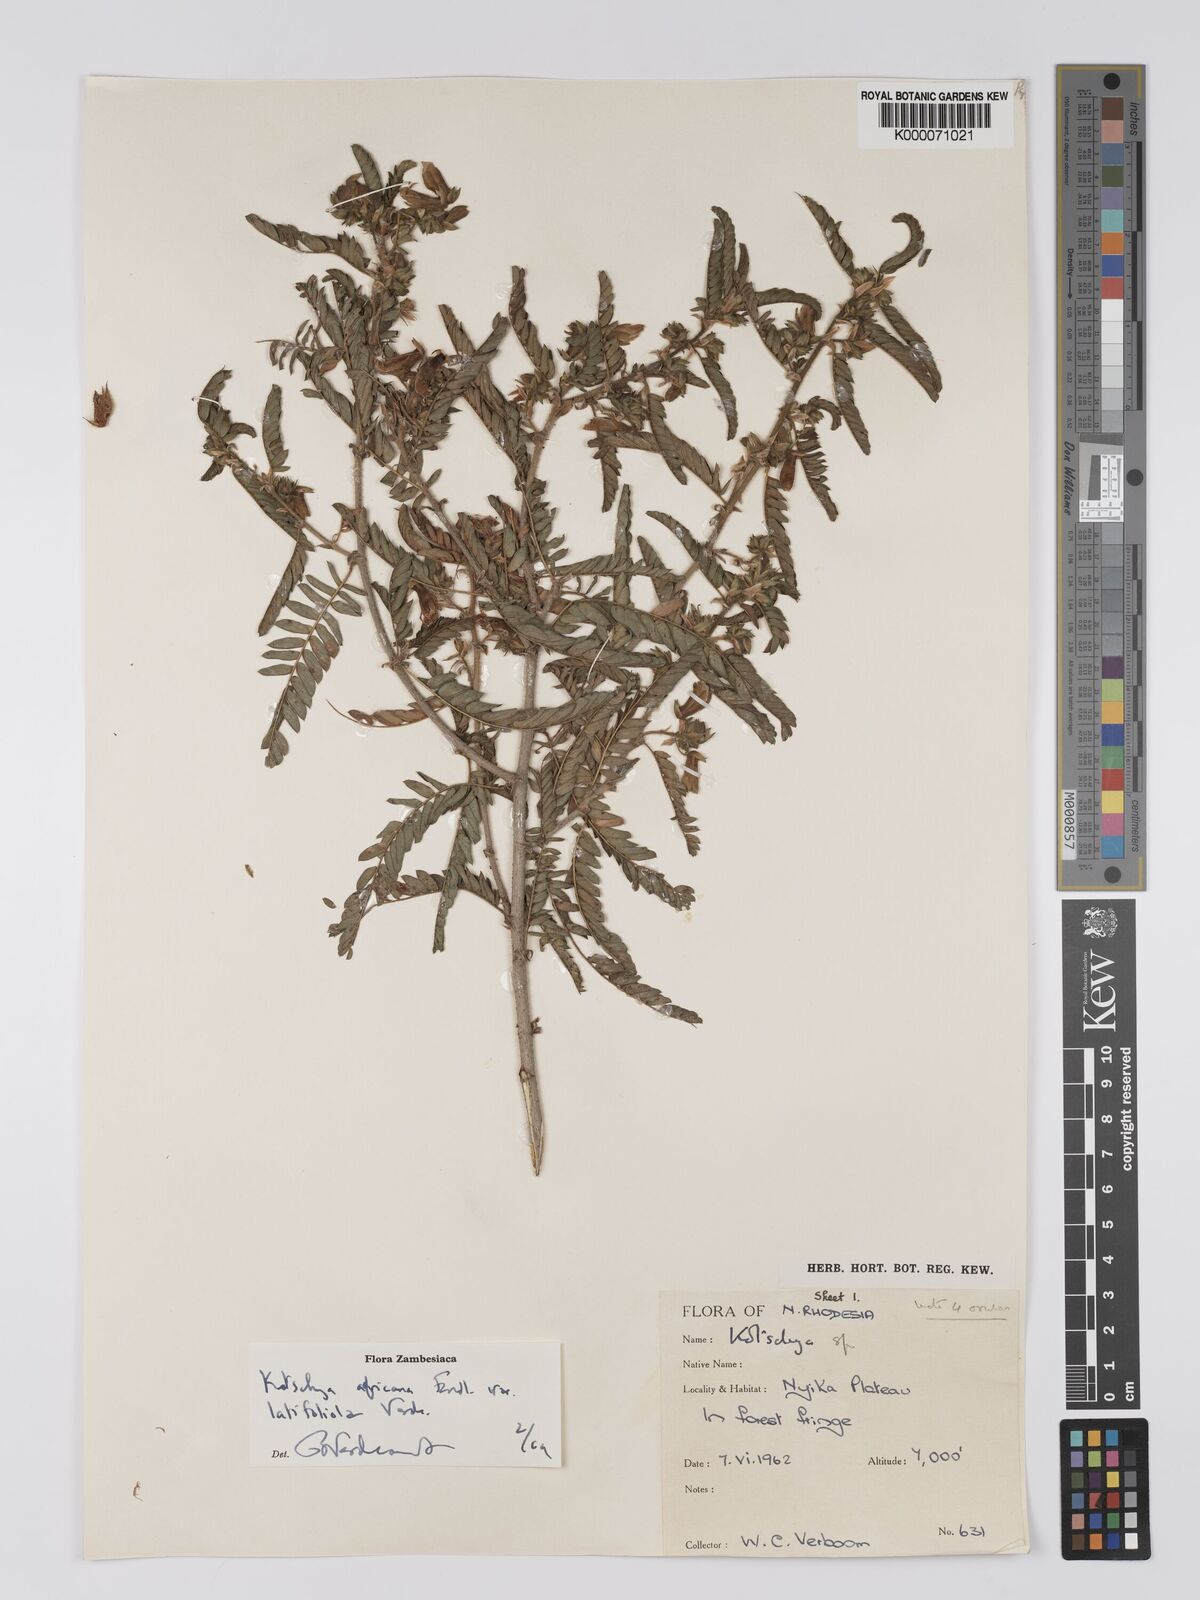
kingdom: Plantae
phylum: Tracheophyta
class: Magnoliopsida
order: Fabales
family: Fabaceae
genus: Kotschya
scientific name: Kotschya africana
